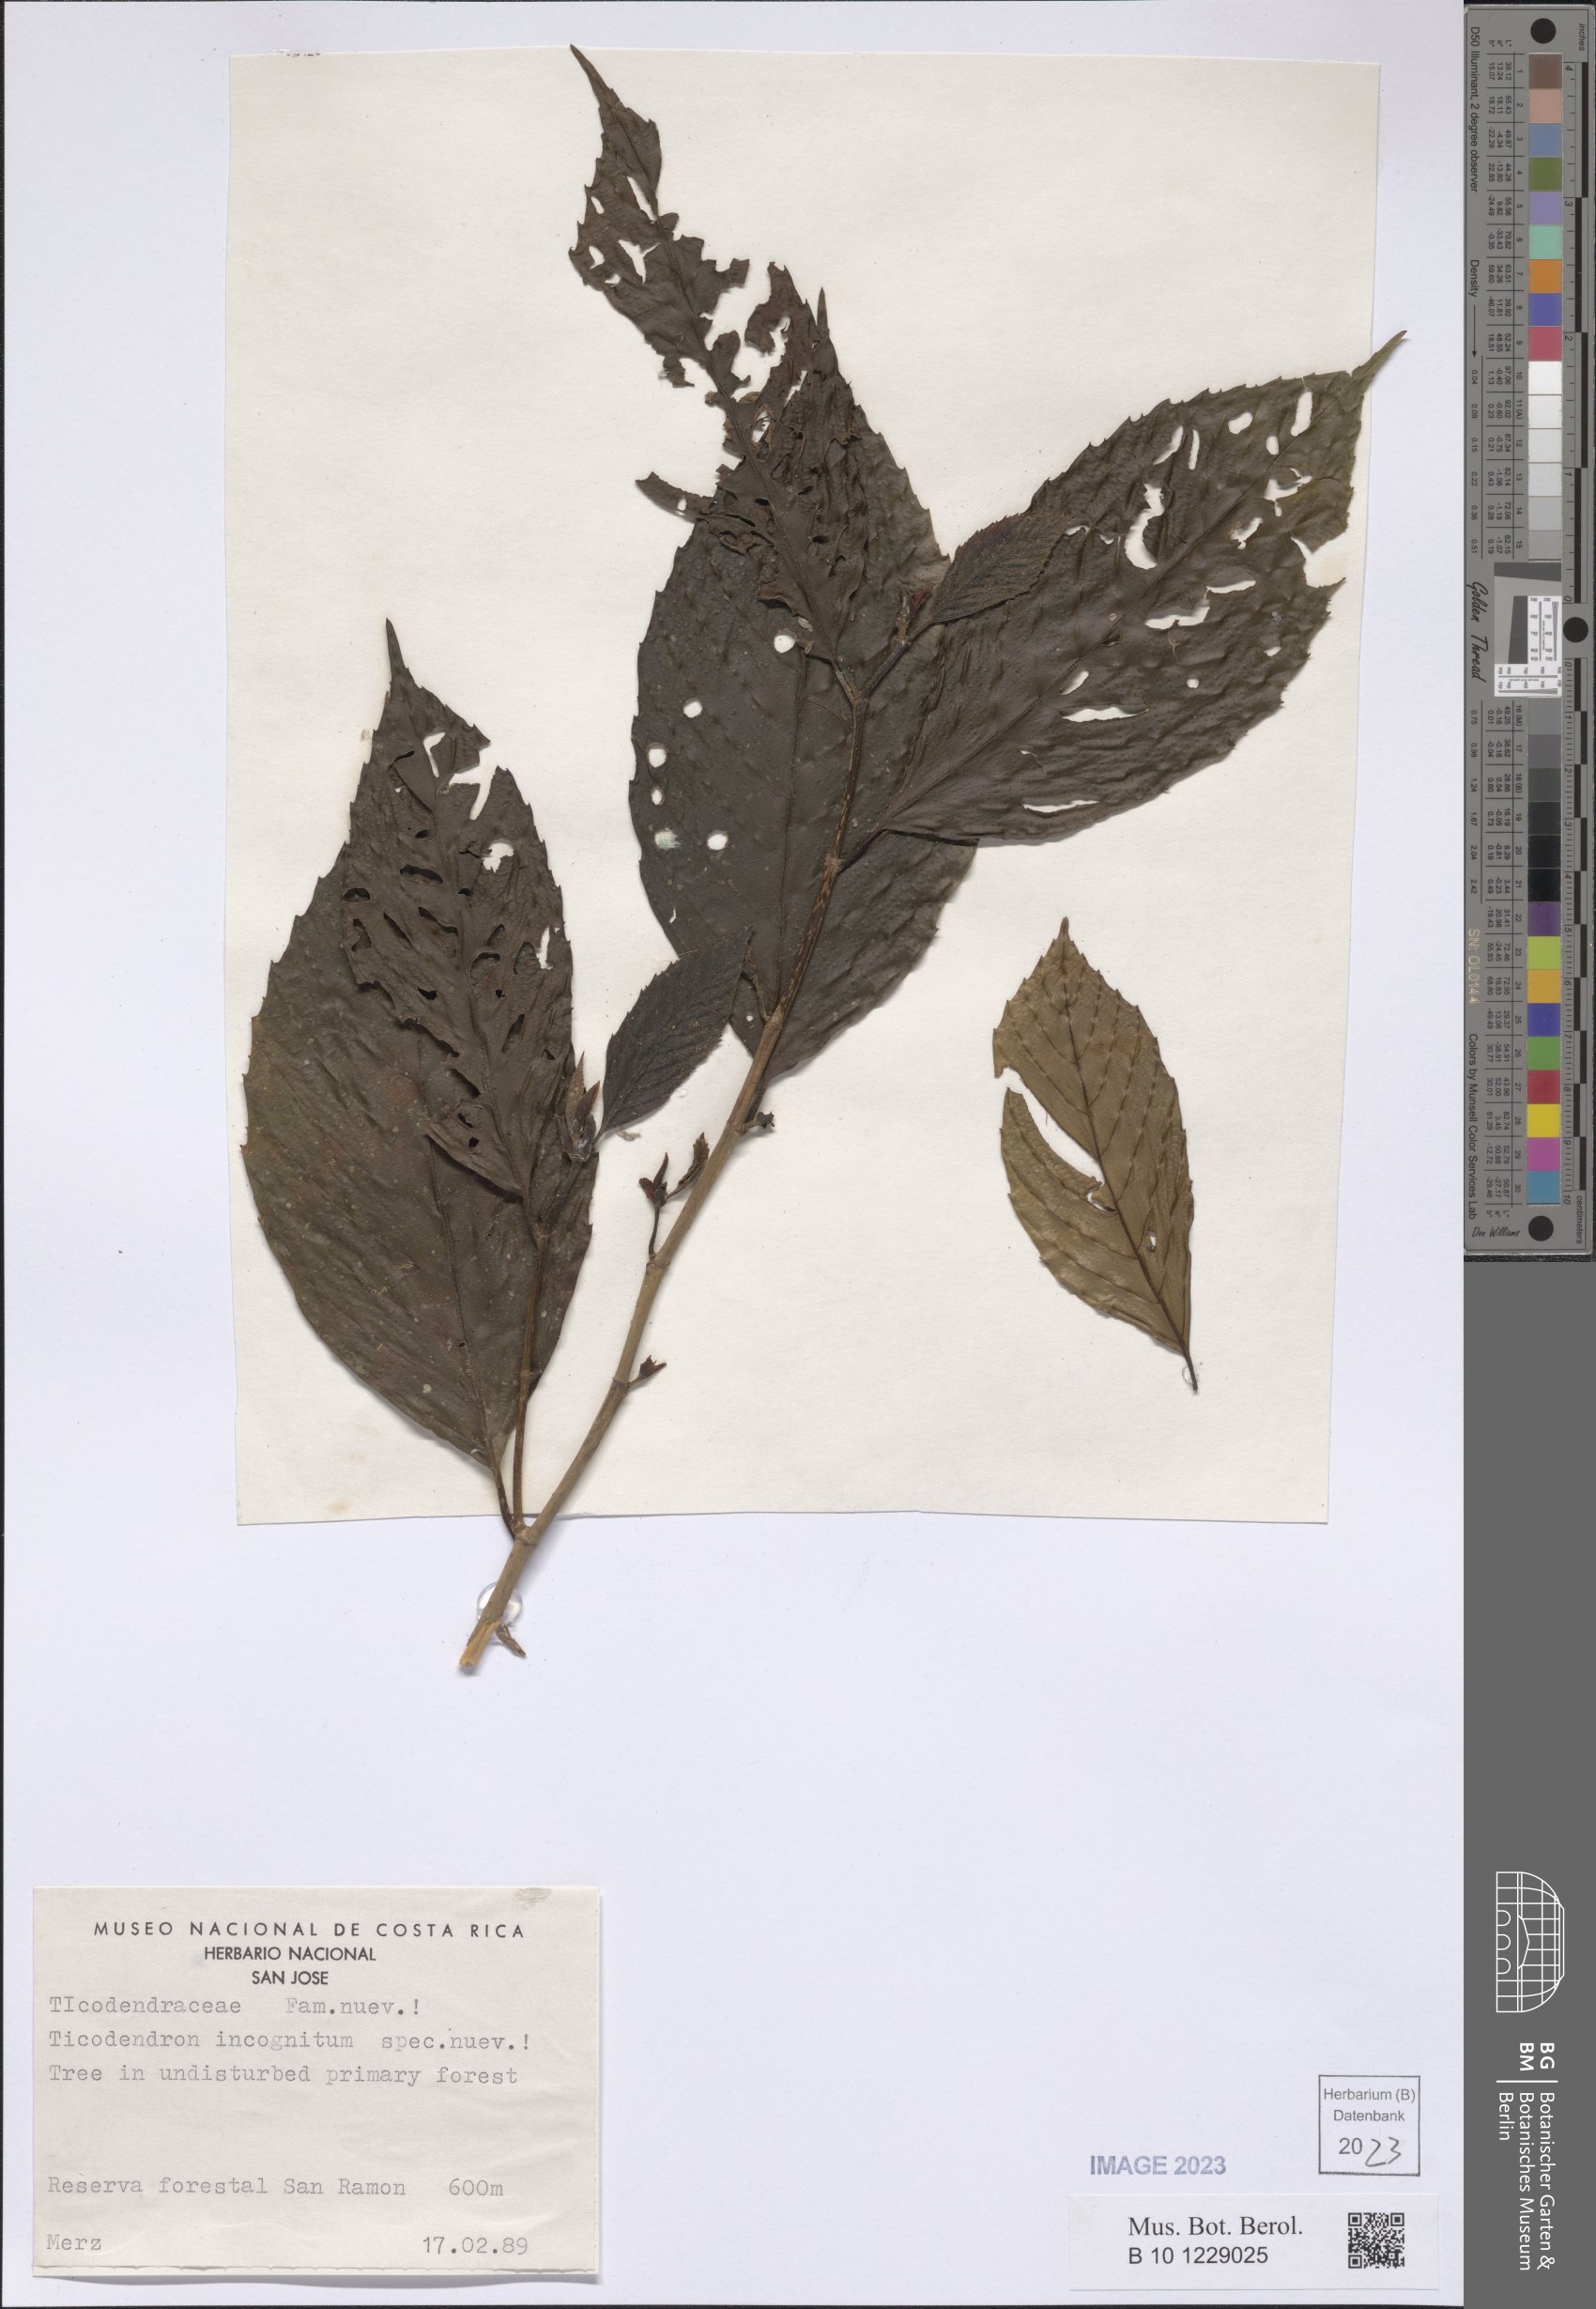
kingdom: Plantae
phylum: Tracheophyta
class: Magnoliopsida
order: Fagales
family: Ticodendraceae
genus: Ticodendron
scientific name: Ticodendron incognitum
